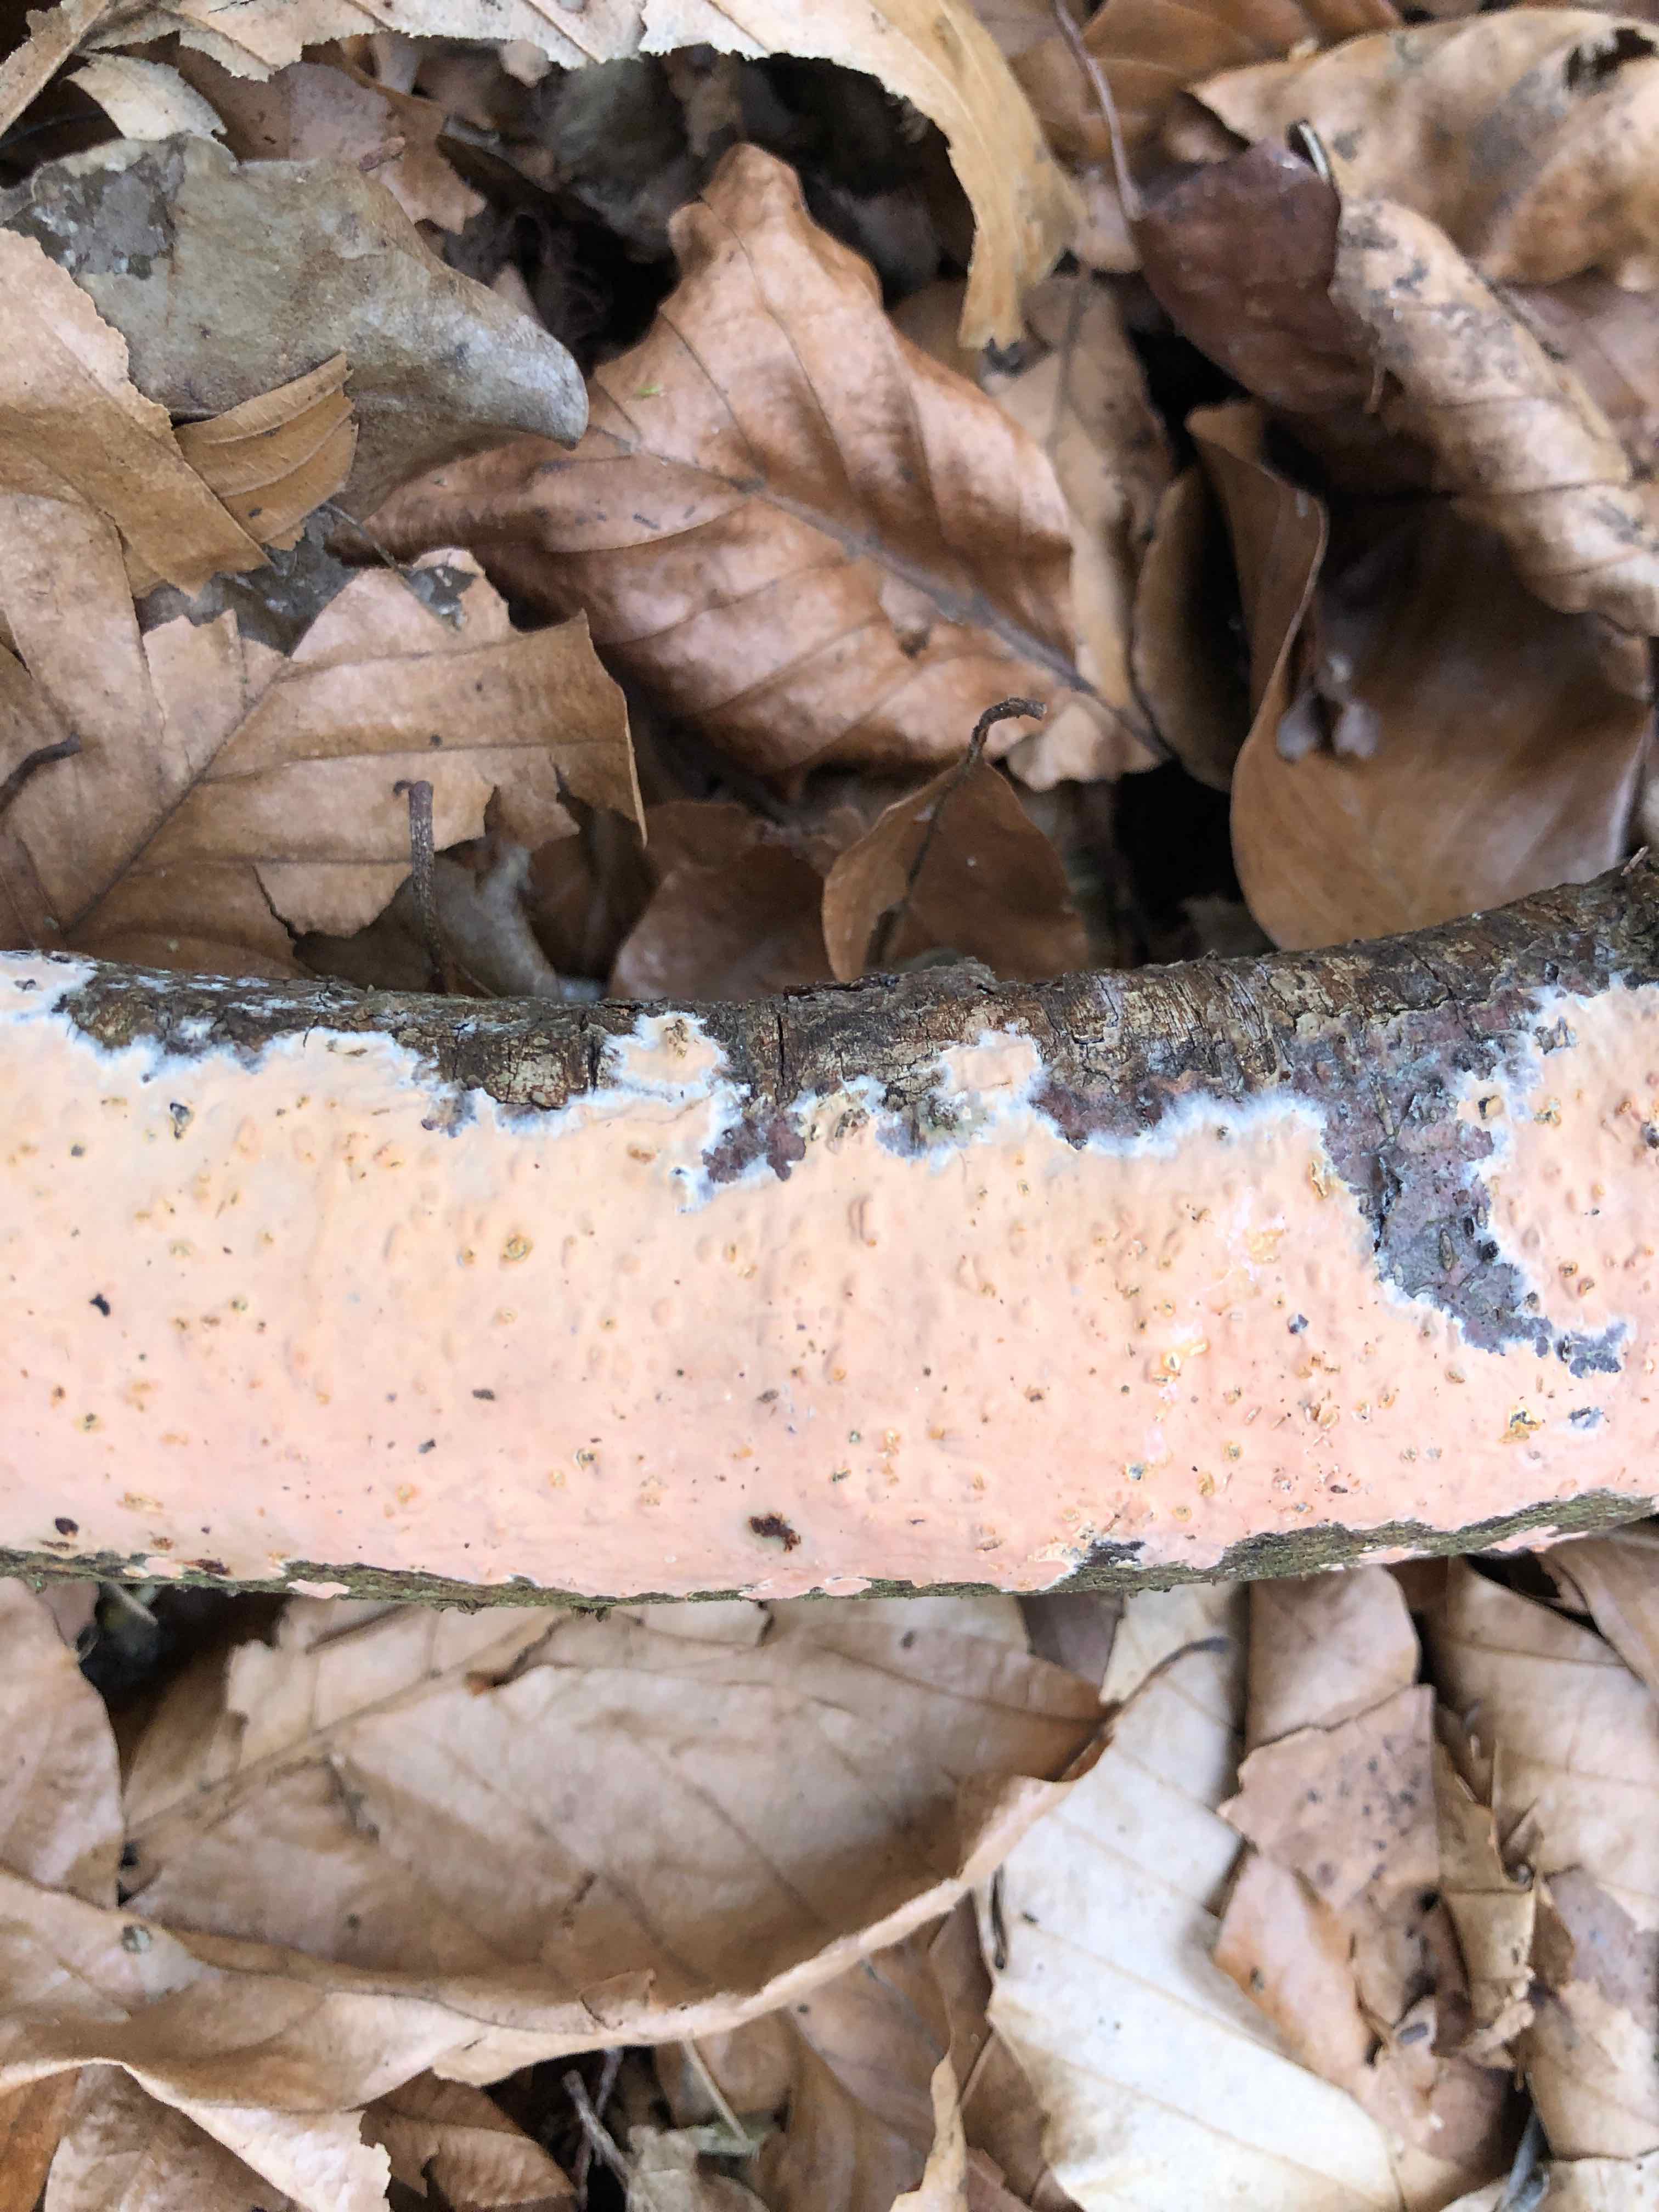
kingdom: Fungi
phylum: Basidiomycota
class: Agaricomycetes
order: Russulales
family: Peniophoraceae
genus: Peniophora
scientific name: Peniophora incarnata
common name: laksefarvet voksskind
